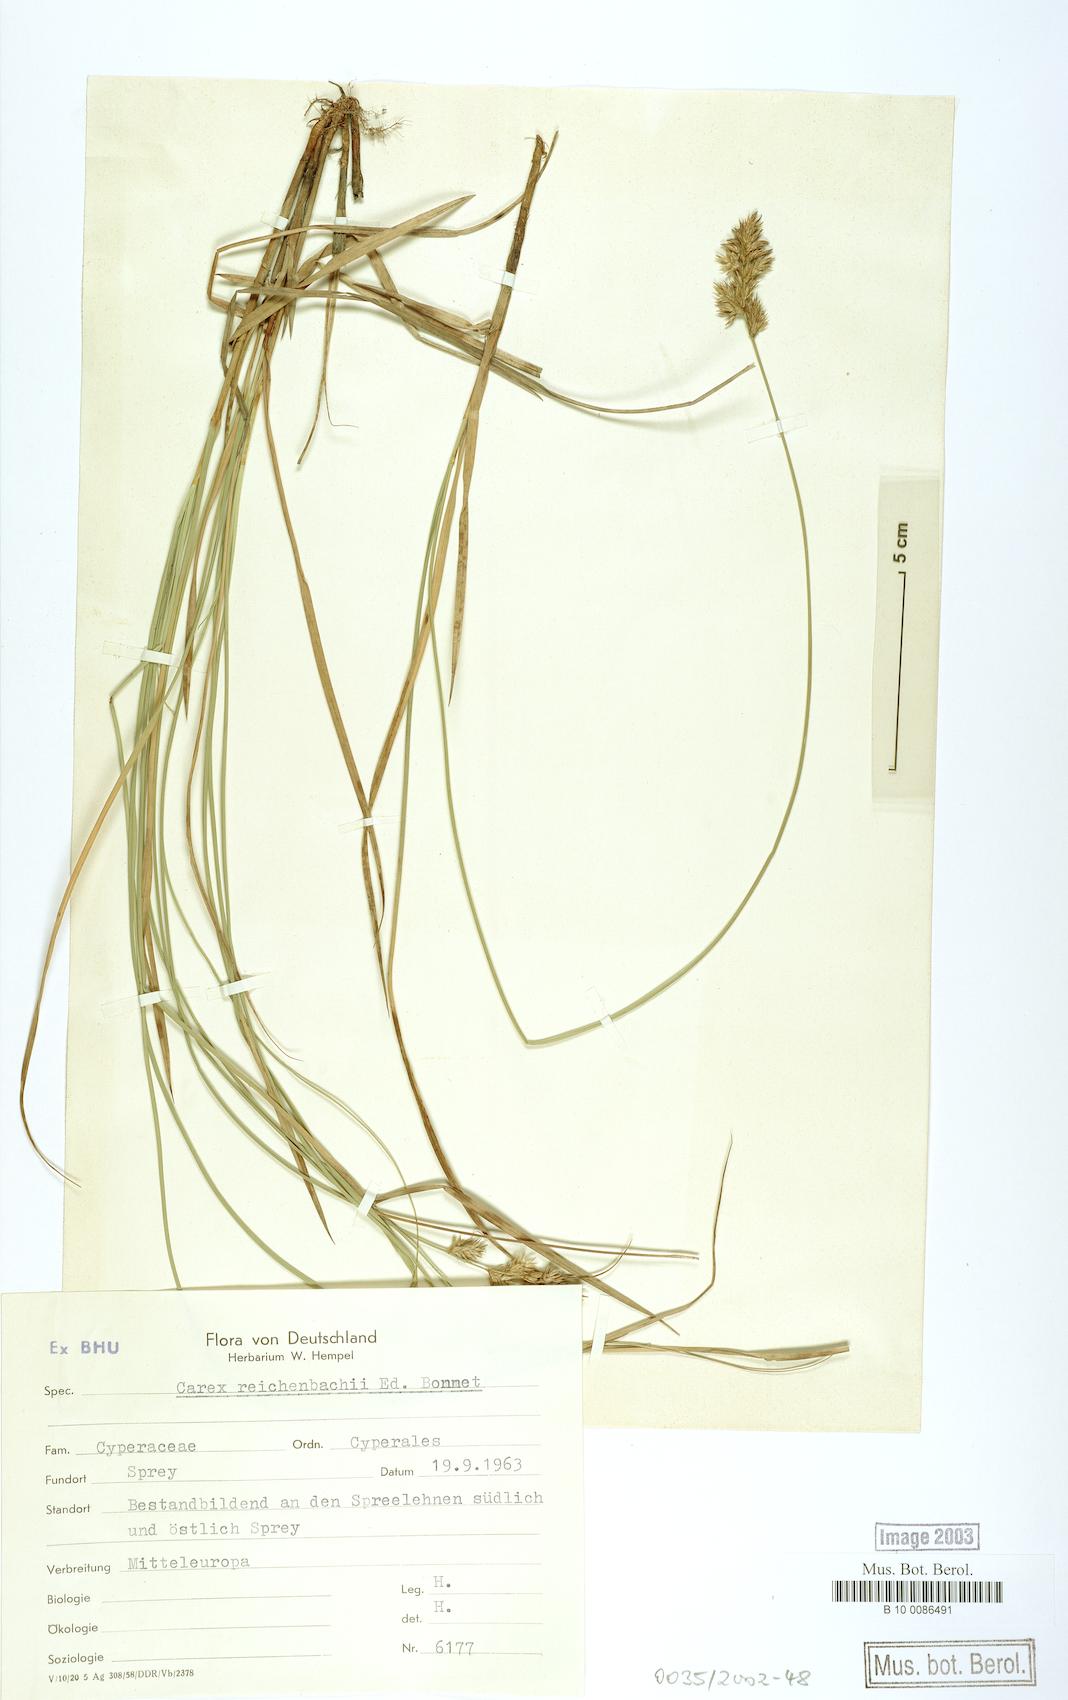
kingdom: Plantae
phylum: Tracheophyta
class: Liliopsida
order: Poales
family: Cyperaceae
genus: Carex
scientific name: Carex reichenbachii
